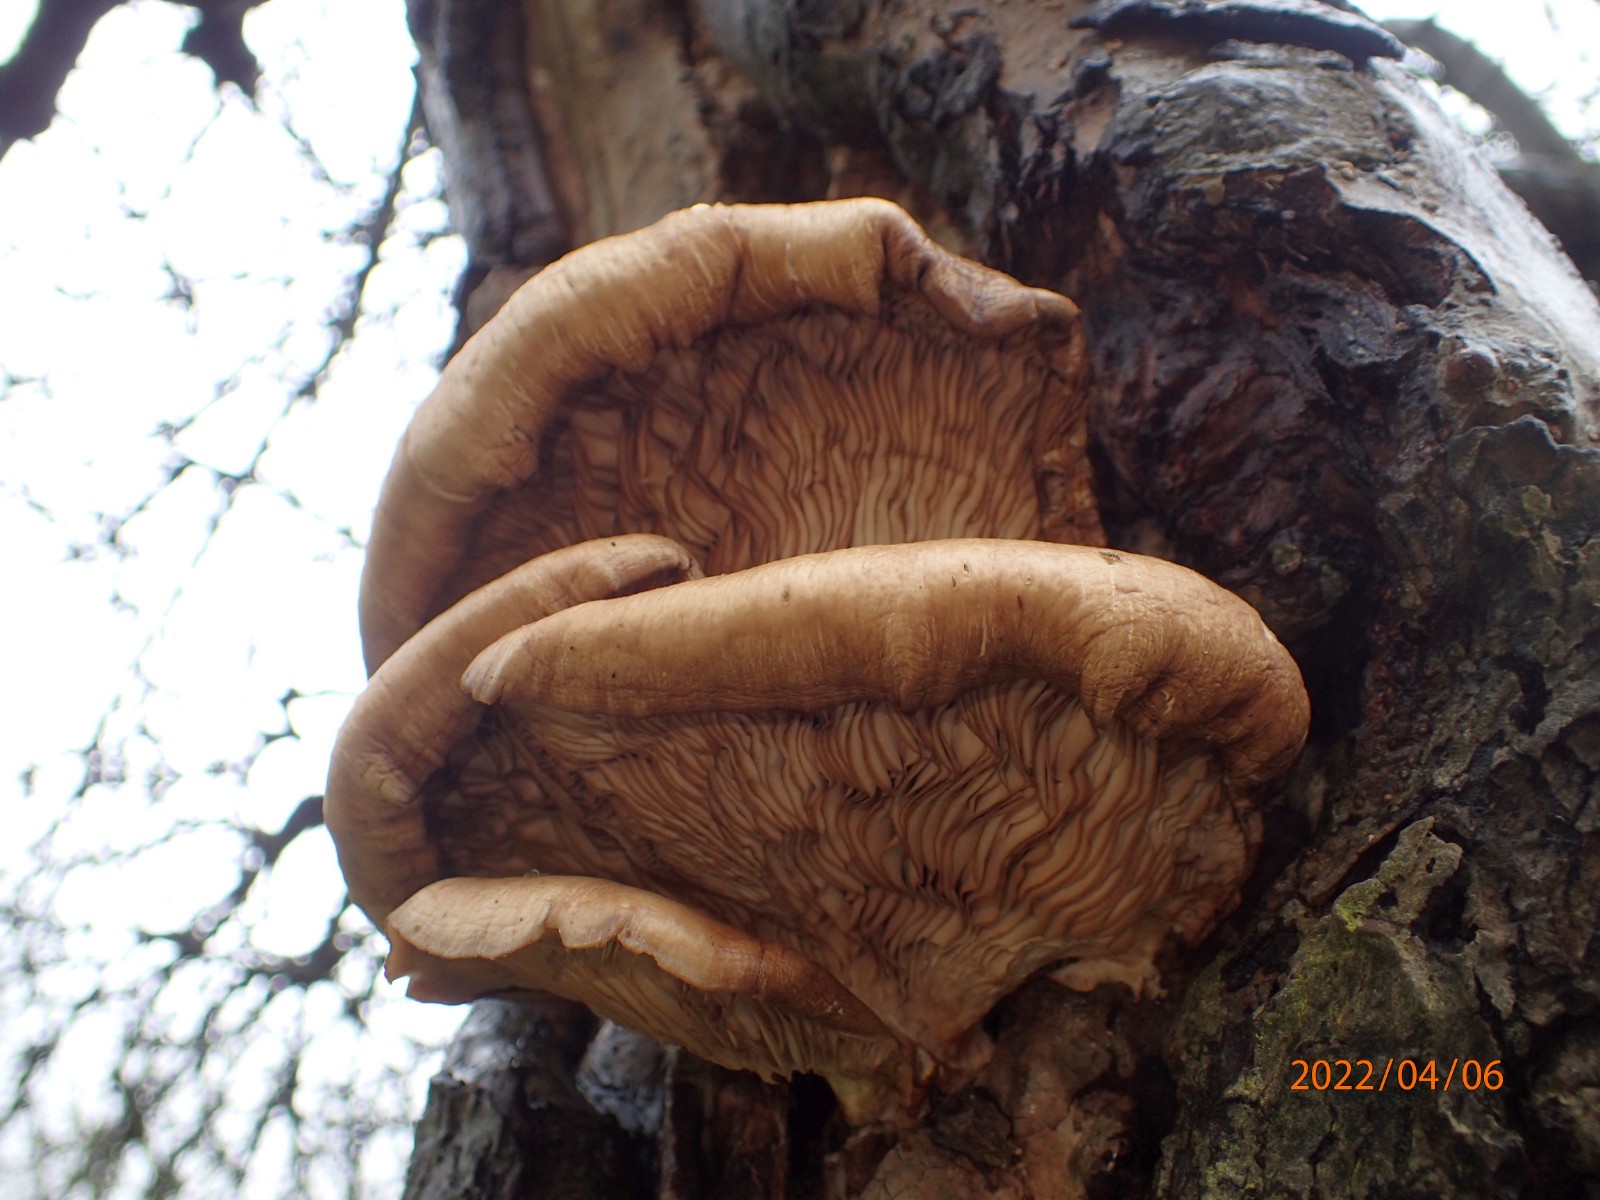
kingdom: Fungi
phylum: Basidiomycota
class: Agaricomycetes
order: Agaricales
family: Pleurotaceae
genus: Pleurotus
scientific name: Pleurotus ostreatus
